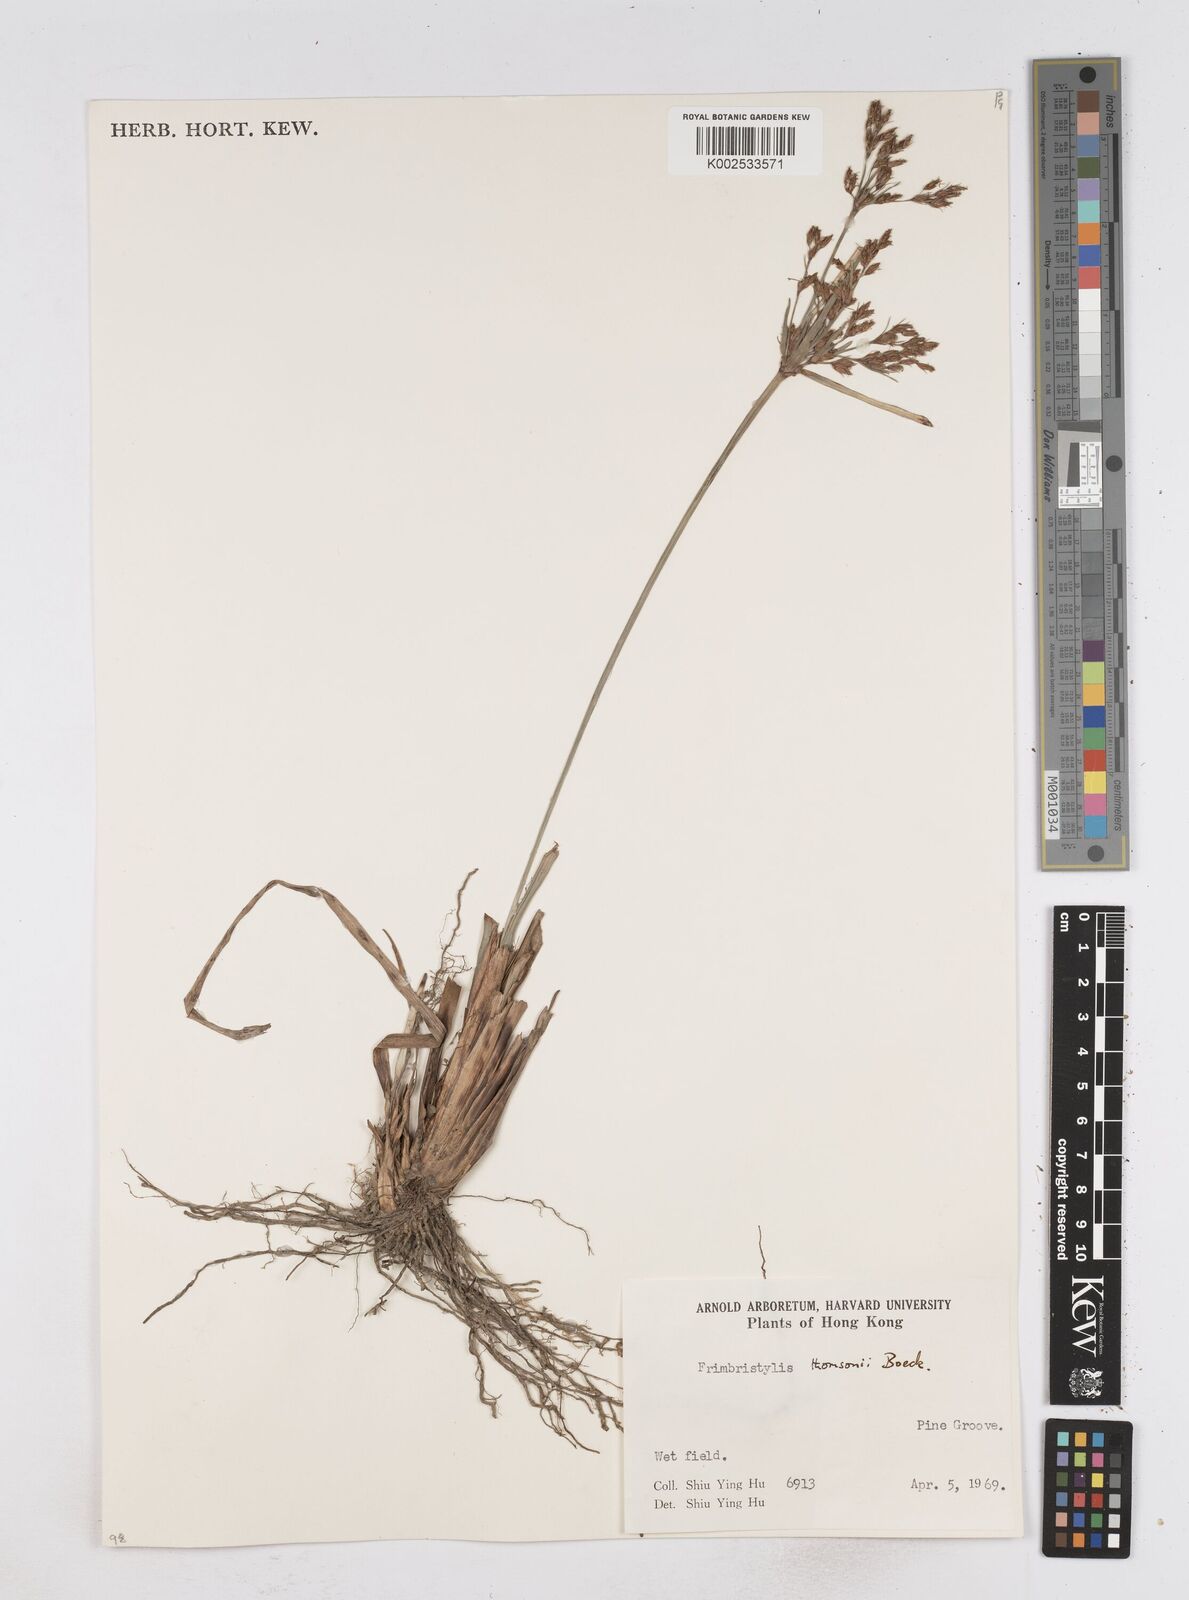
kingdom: Plantae
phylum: Tracheophyta
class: Liliopsida
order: Poales
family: Cyperaceae
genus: Fimbristylis
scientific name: Fimbristylis thomsonii
